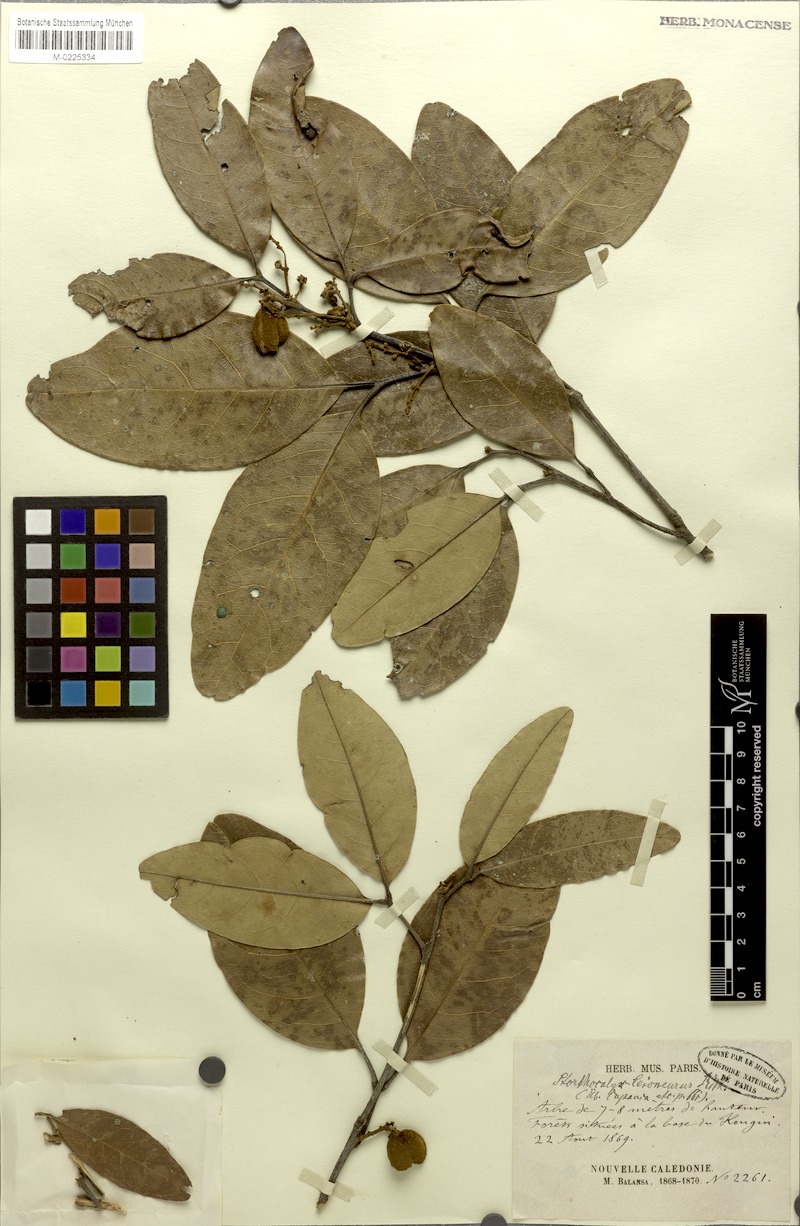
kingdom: Plantae
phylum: Tracheophyta
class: Magnoliopsida
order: Sapindales
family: Sapindaceae
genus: Storthocalyx
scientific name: Storthocalyx leioneurus
